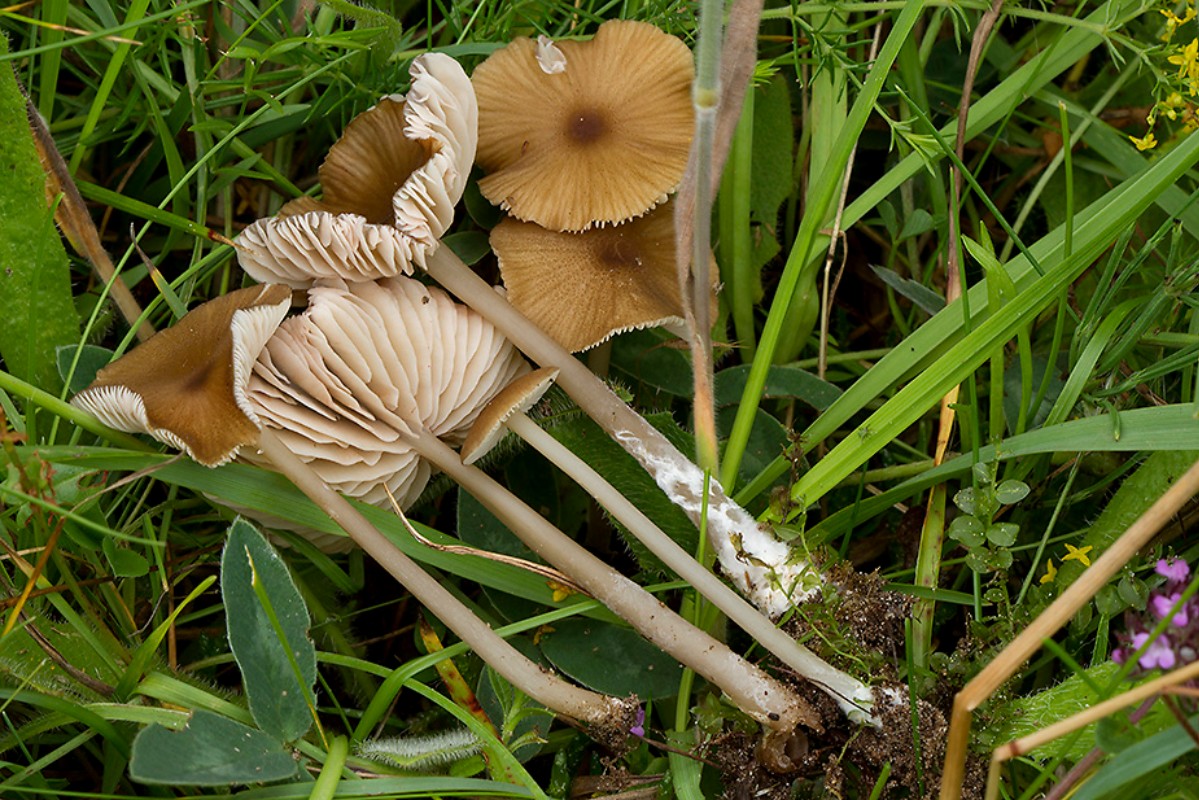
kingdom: Fungi
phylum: Basidiomycota
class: Agaricomycetes
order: Agaricales
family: Entolomataceae
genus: Entoloma
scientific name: Entoloma longistriatum
